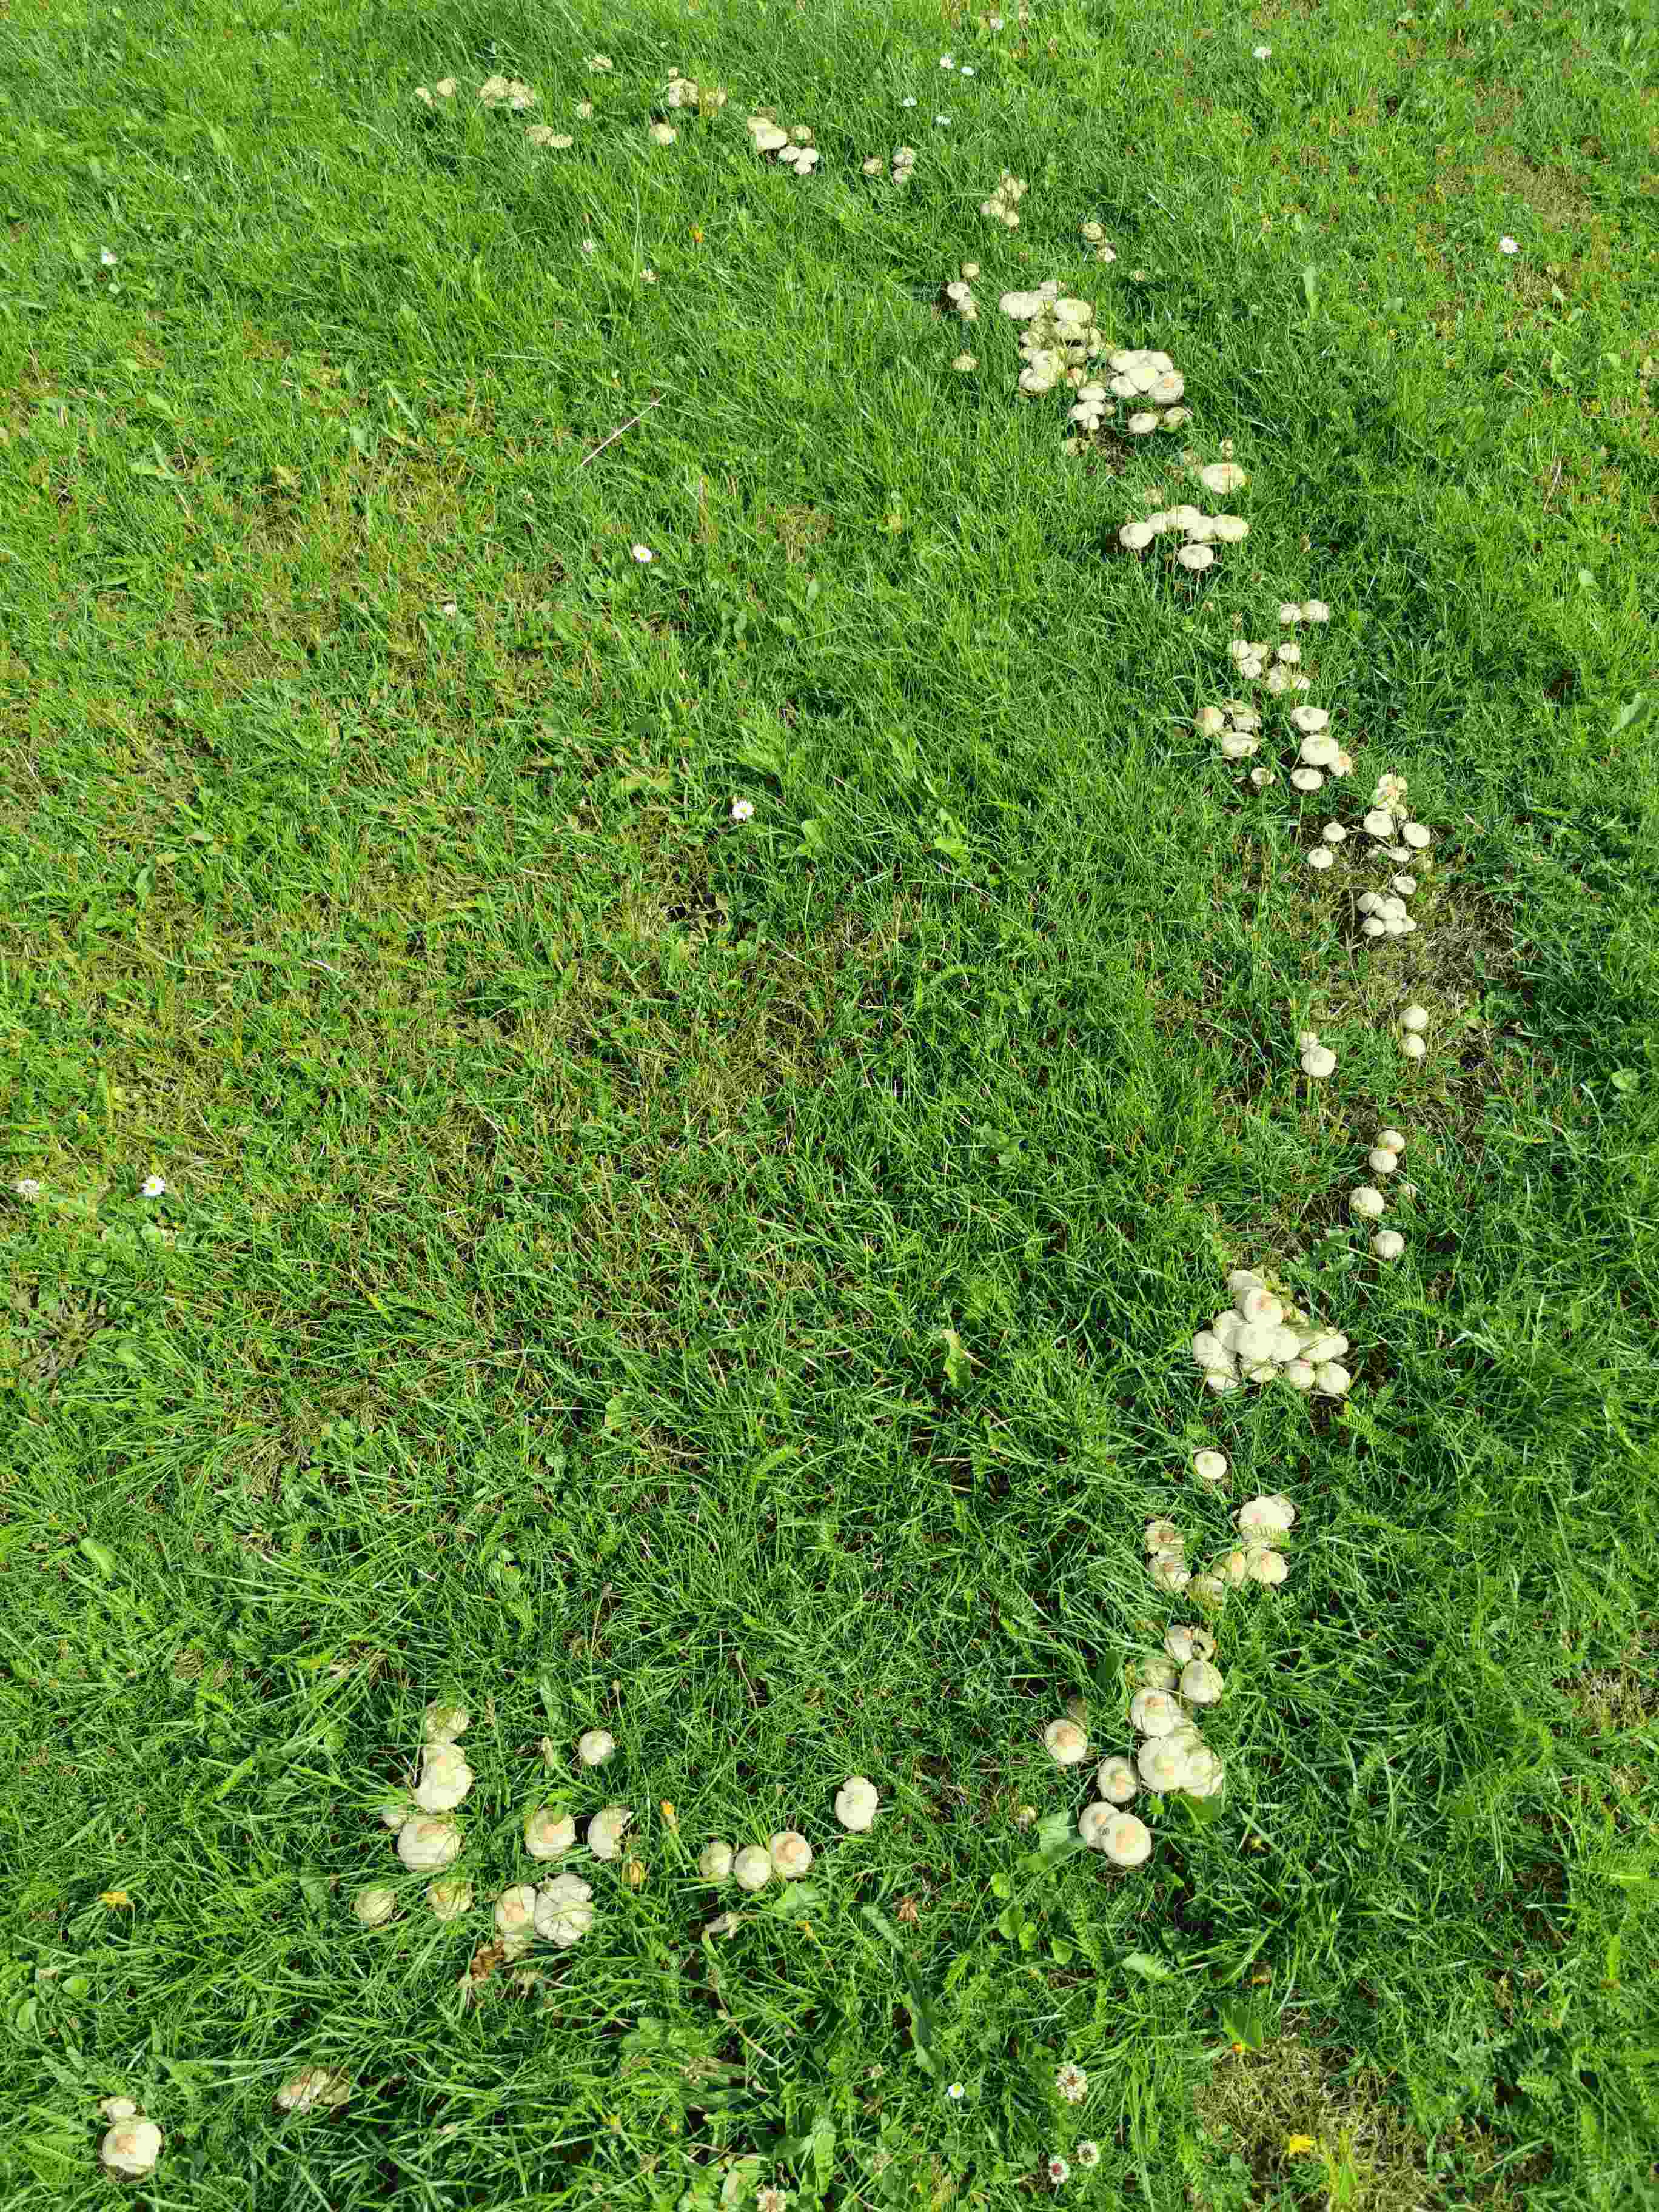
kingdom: Fungi
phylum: Basidiomycota
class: Agaricomycetes
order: Agaricales
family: Marasmiaceae
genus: Marasmius
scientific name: Marasmius oreades
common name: elledans-bruskhat
